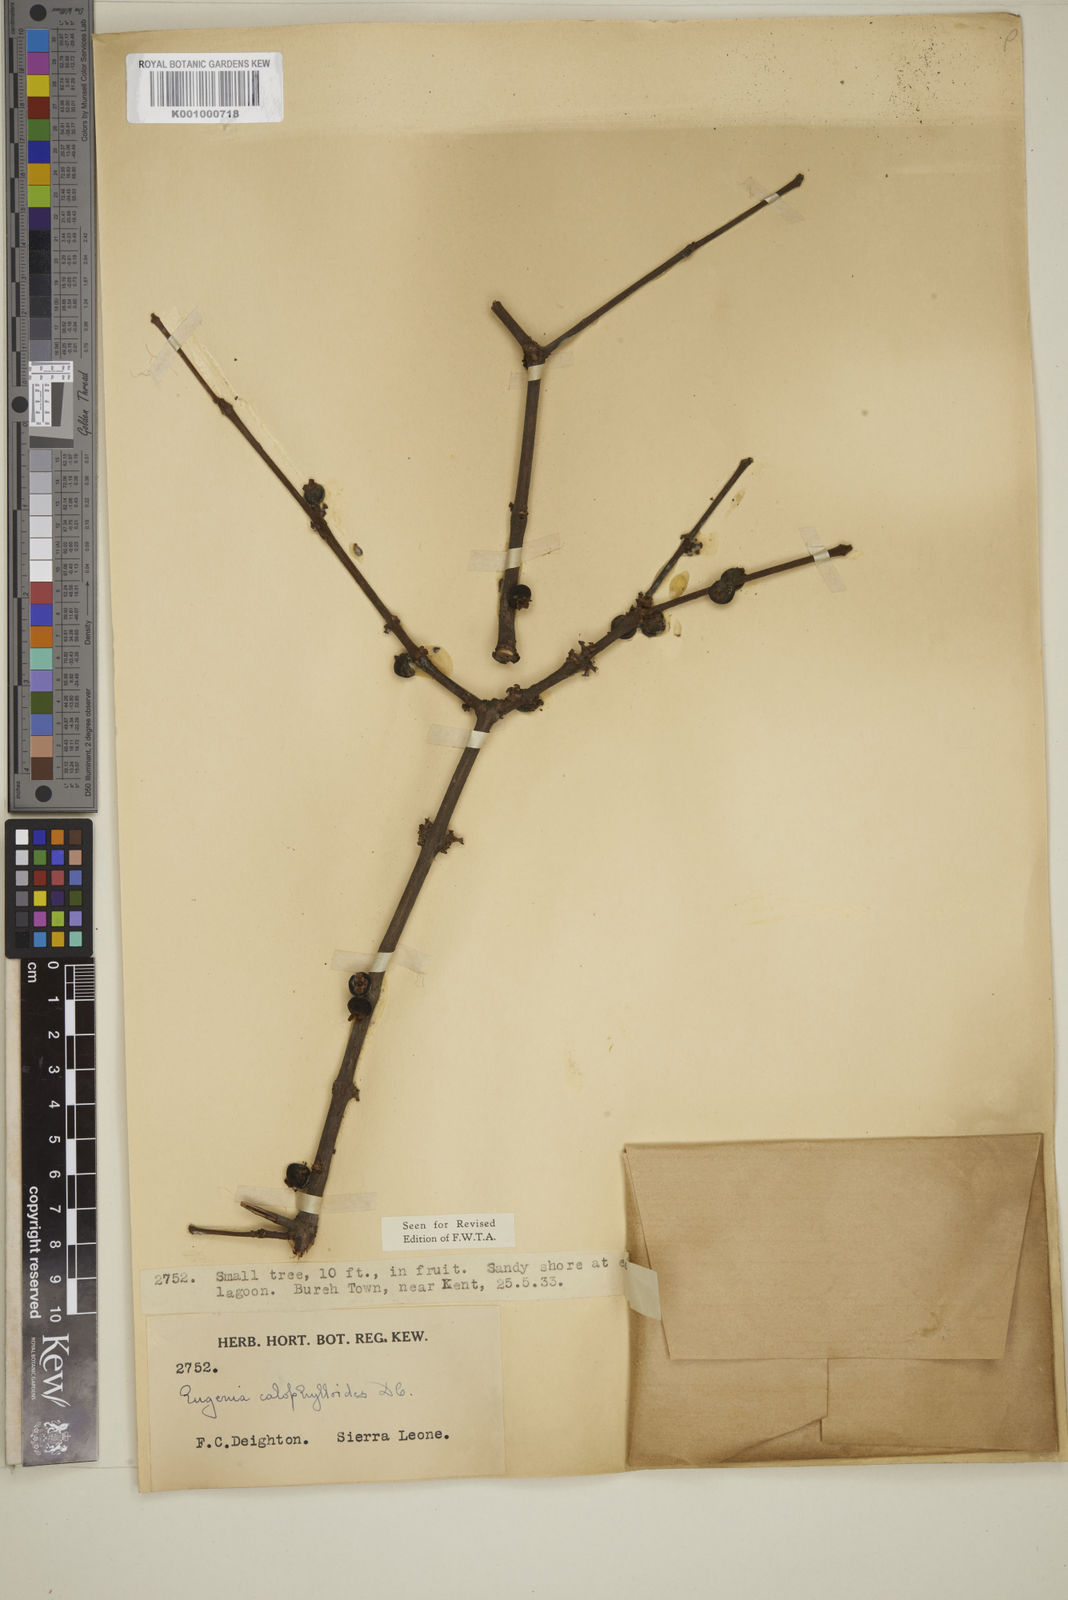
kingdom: Plantae
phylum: Tracheophyta
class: Magnoliopsida
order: Myrtales
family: Myrtaceae
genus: Eugenia
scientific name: Eugenia calophylloides
